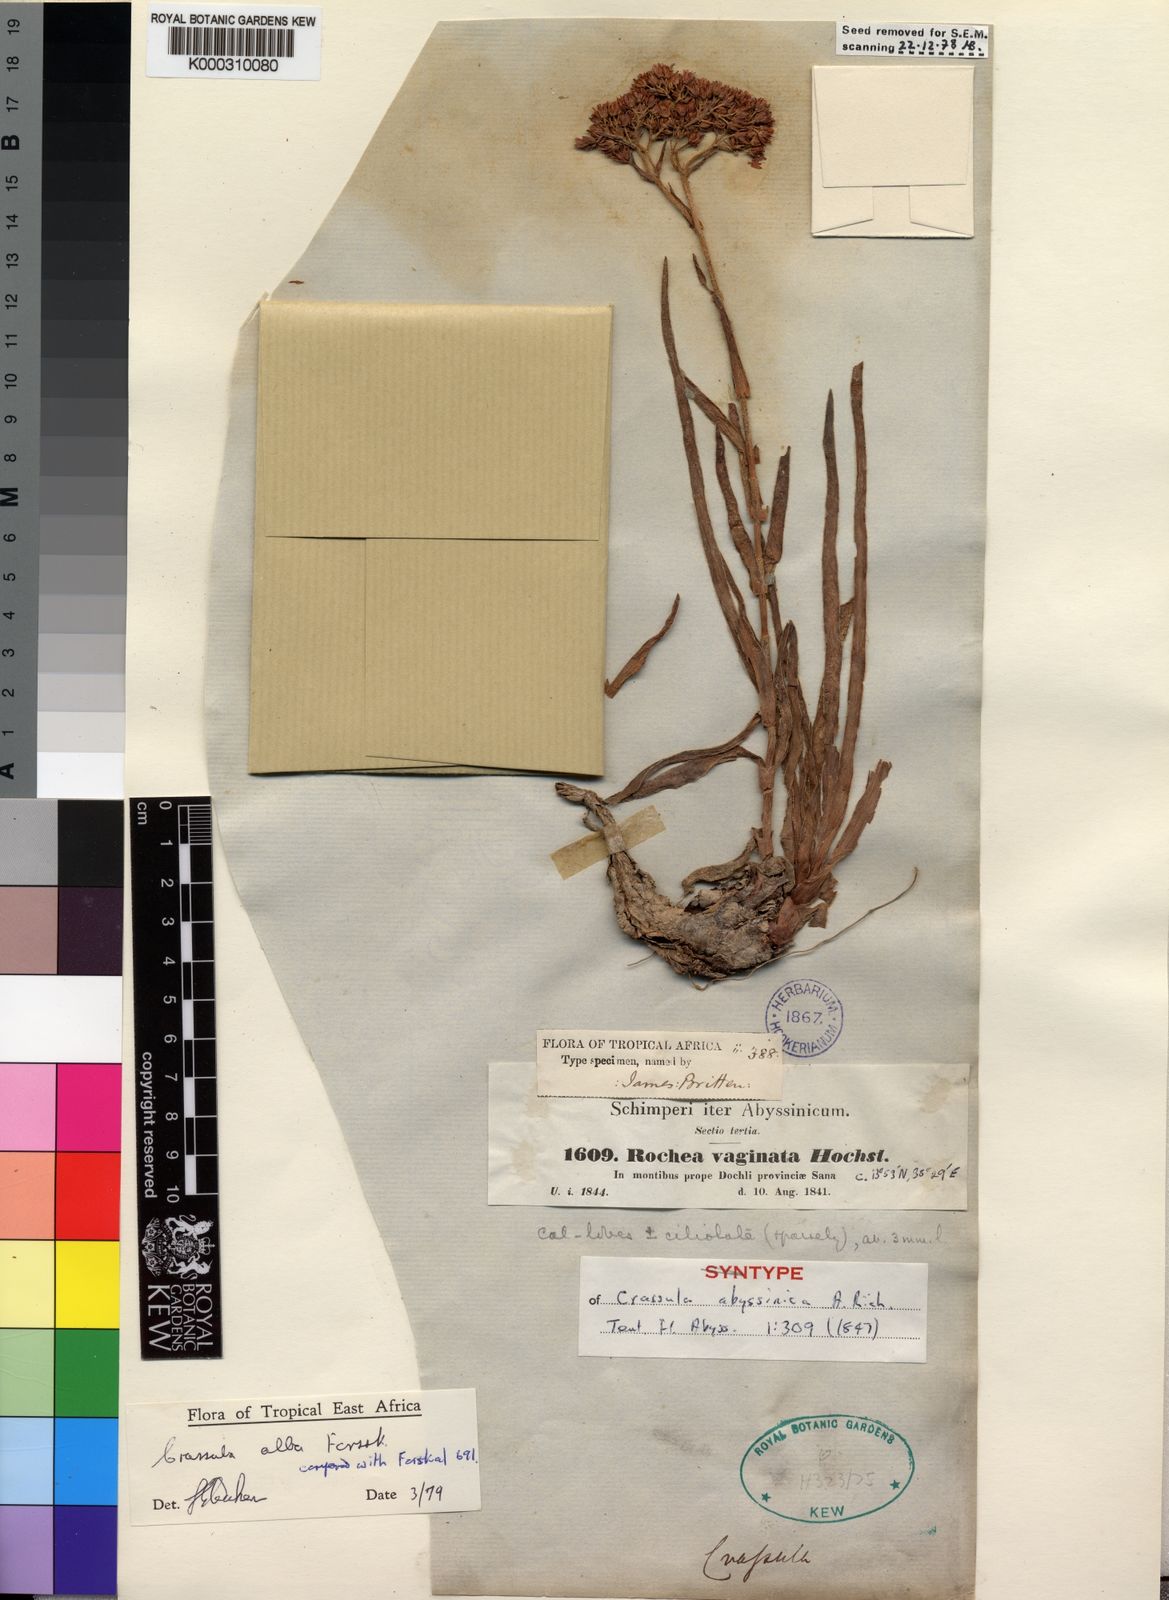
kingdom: Plantae
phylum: Tracheophyta
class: Magnoliopsida
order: Saxifragales
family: Crassulaceae
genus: Crassula
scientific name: Crassula alba
